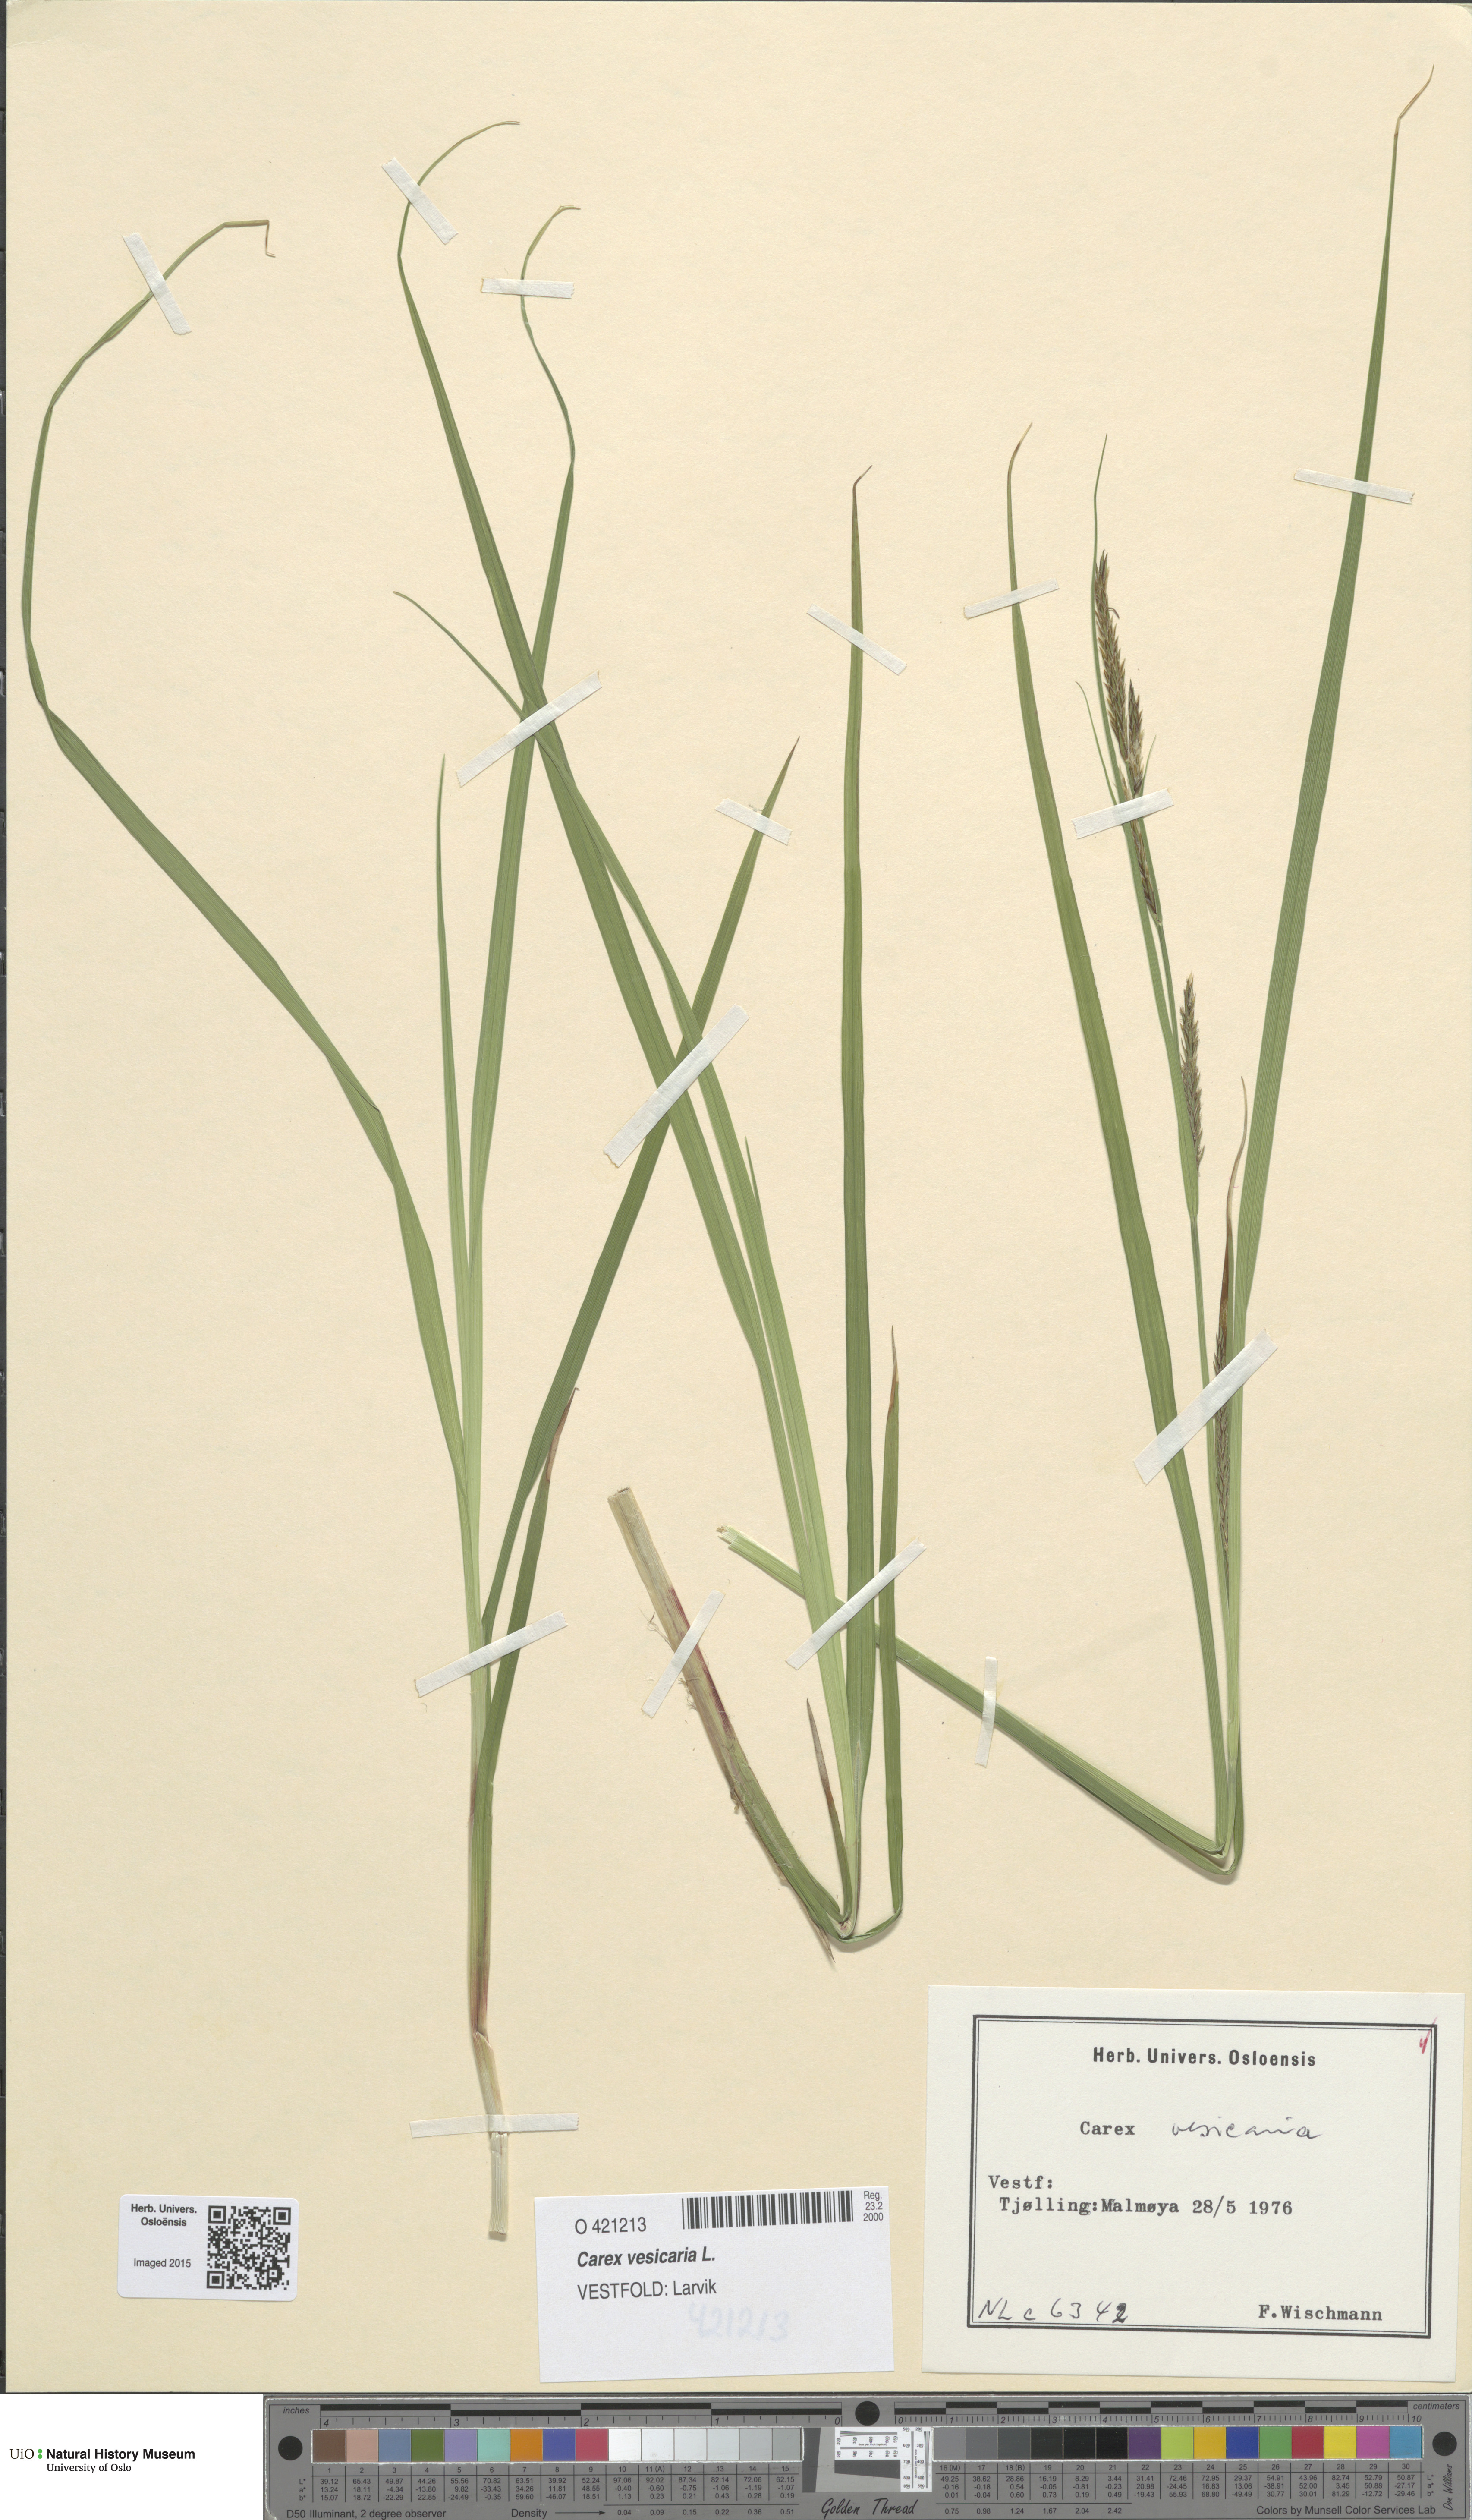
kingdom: Plantae
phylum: Tracheophyta
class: Liliopsida
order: Poales
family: Cyperaceae
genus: Carex
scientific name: Carex vesicaria
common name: Bladder-sedge
